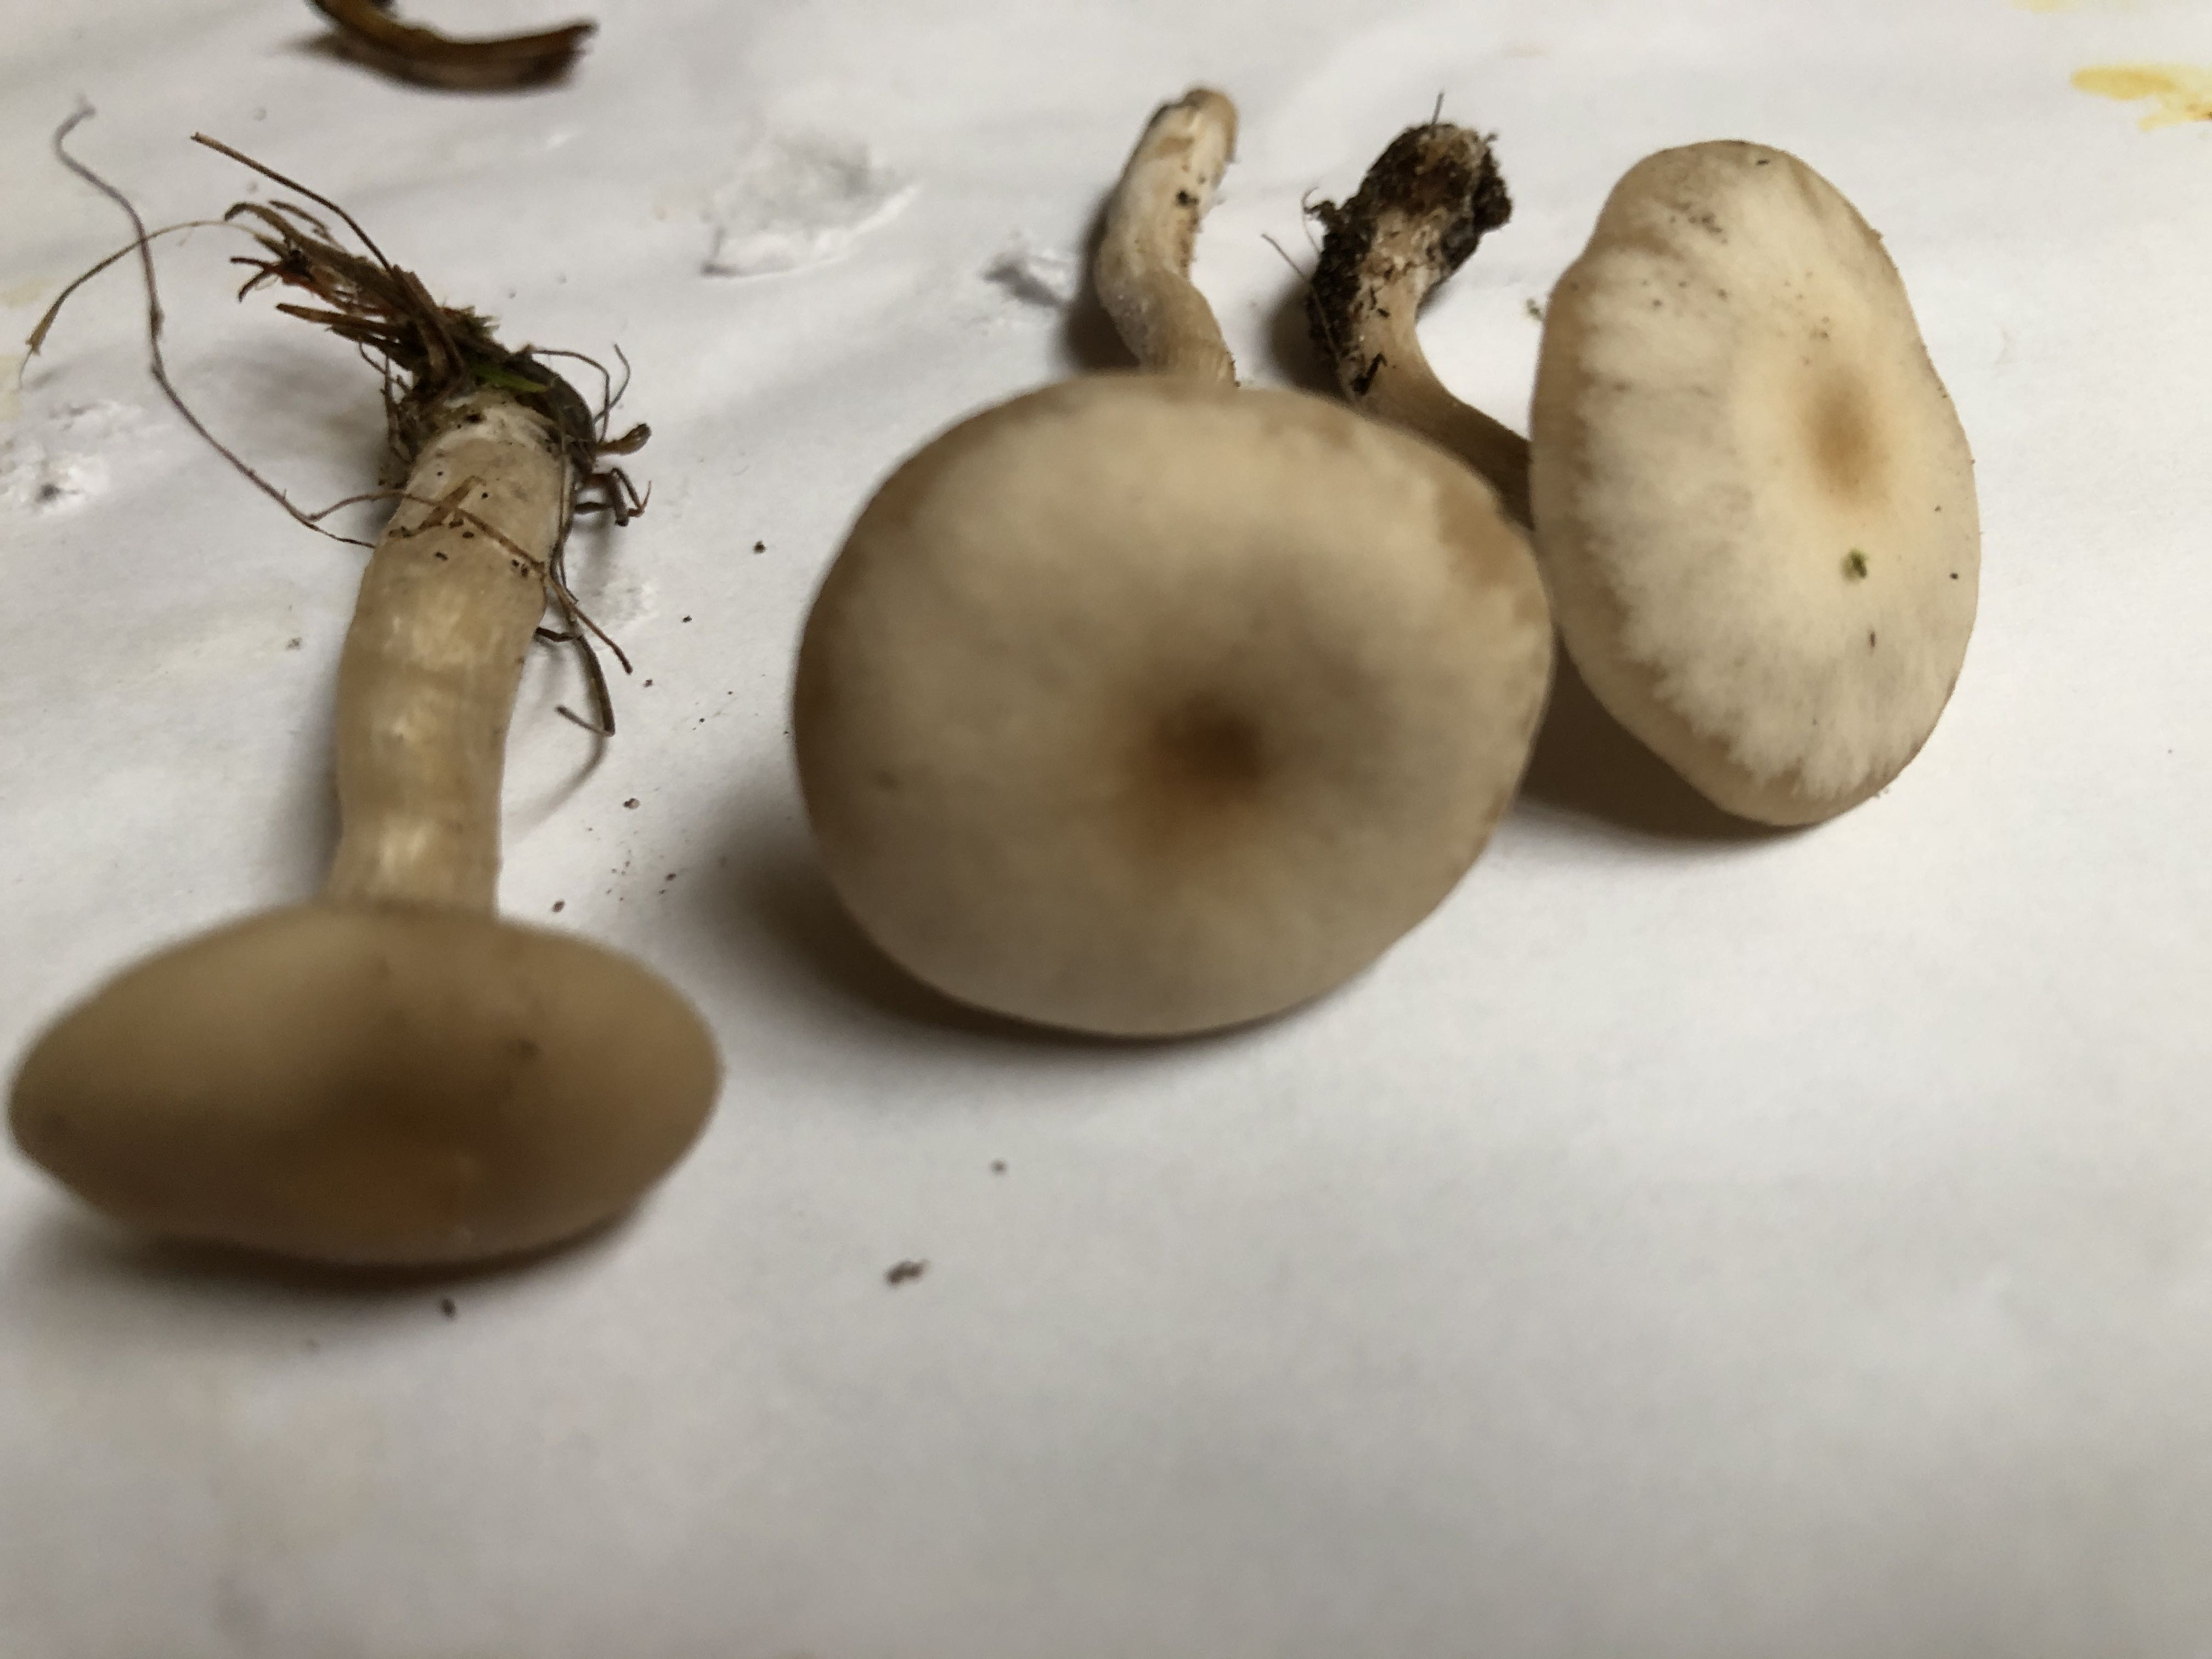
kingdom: Fungi
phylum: Basidiomycota
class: Agaricomycetes
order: Agaricales
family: Tricholomataceae
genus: Clitocybe
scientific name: Clitocybe fragrans
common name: vellugtende tragthat
